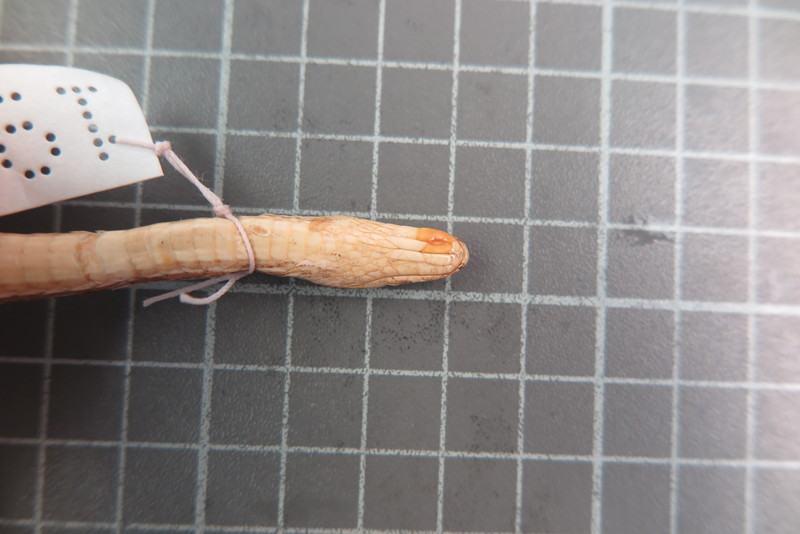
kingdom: Animalia
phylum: Chordata
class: Squamata
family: Psammophiidae
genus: Mimophis
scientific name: Mimophis
